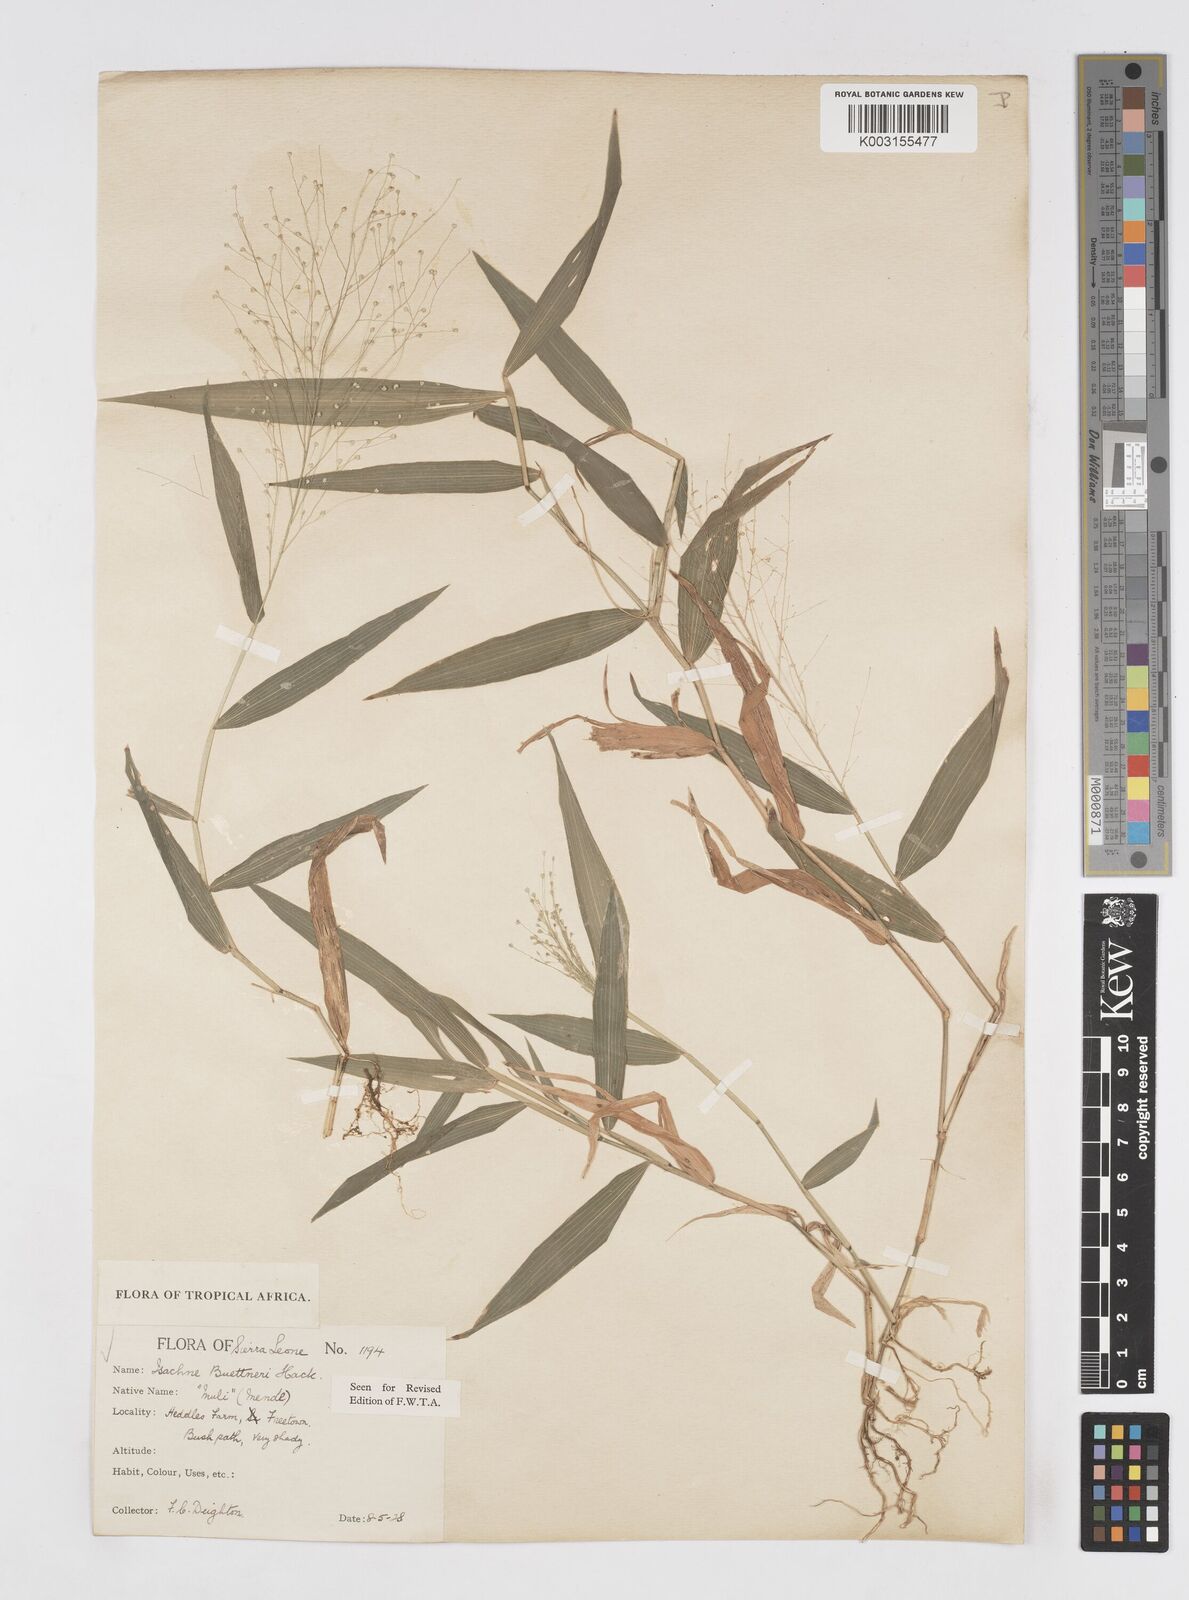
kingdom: Plantae
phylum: Tracheophyta
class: Liliopsida
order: Poales
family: Poaceae
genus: Isachne
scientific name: Isachne albens
